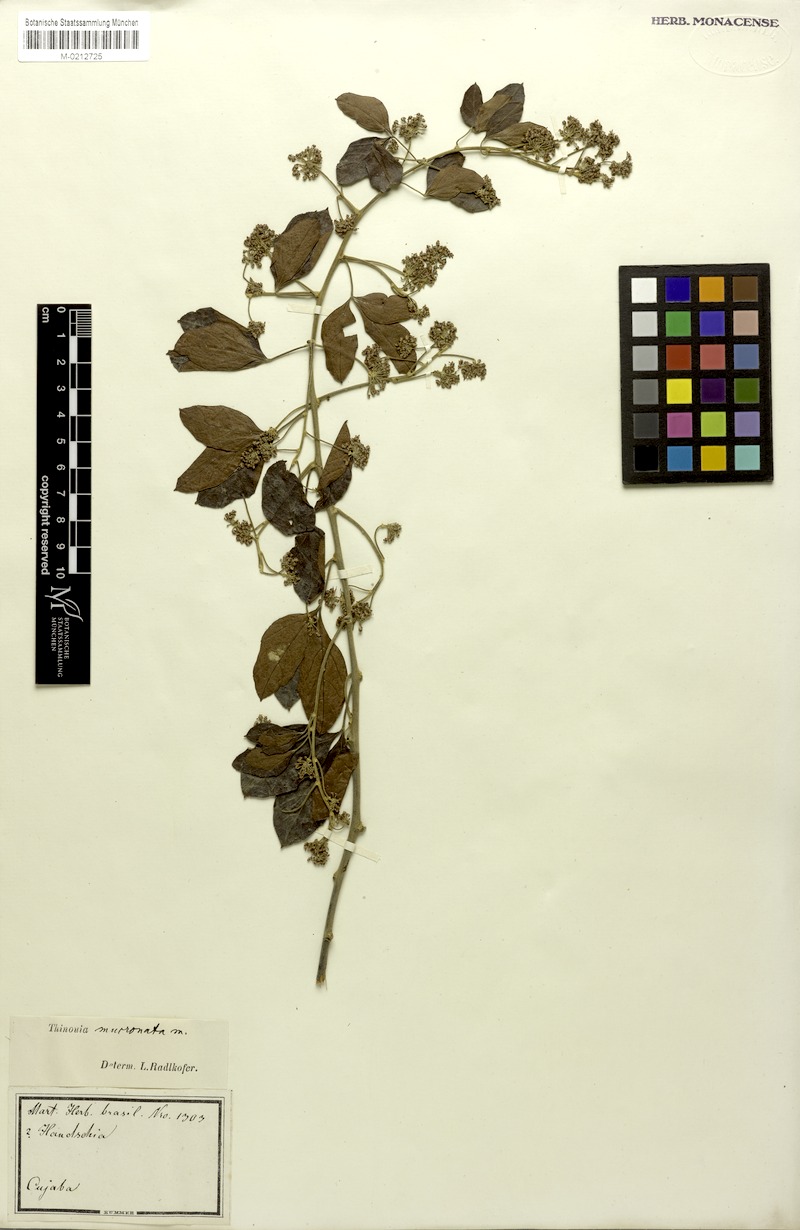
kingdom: Plantae
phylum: Tracheophyta
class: Magnoliopsida
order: Sapindales
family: Sapindaceae
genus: Thinouia
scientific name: Thinouia mucronata
